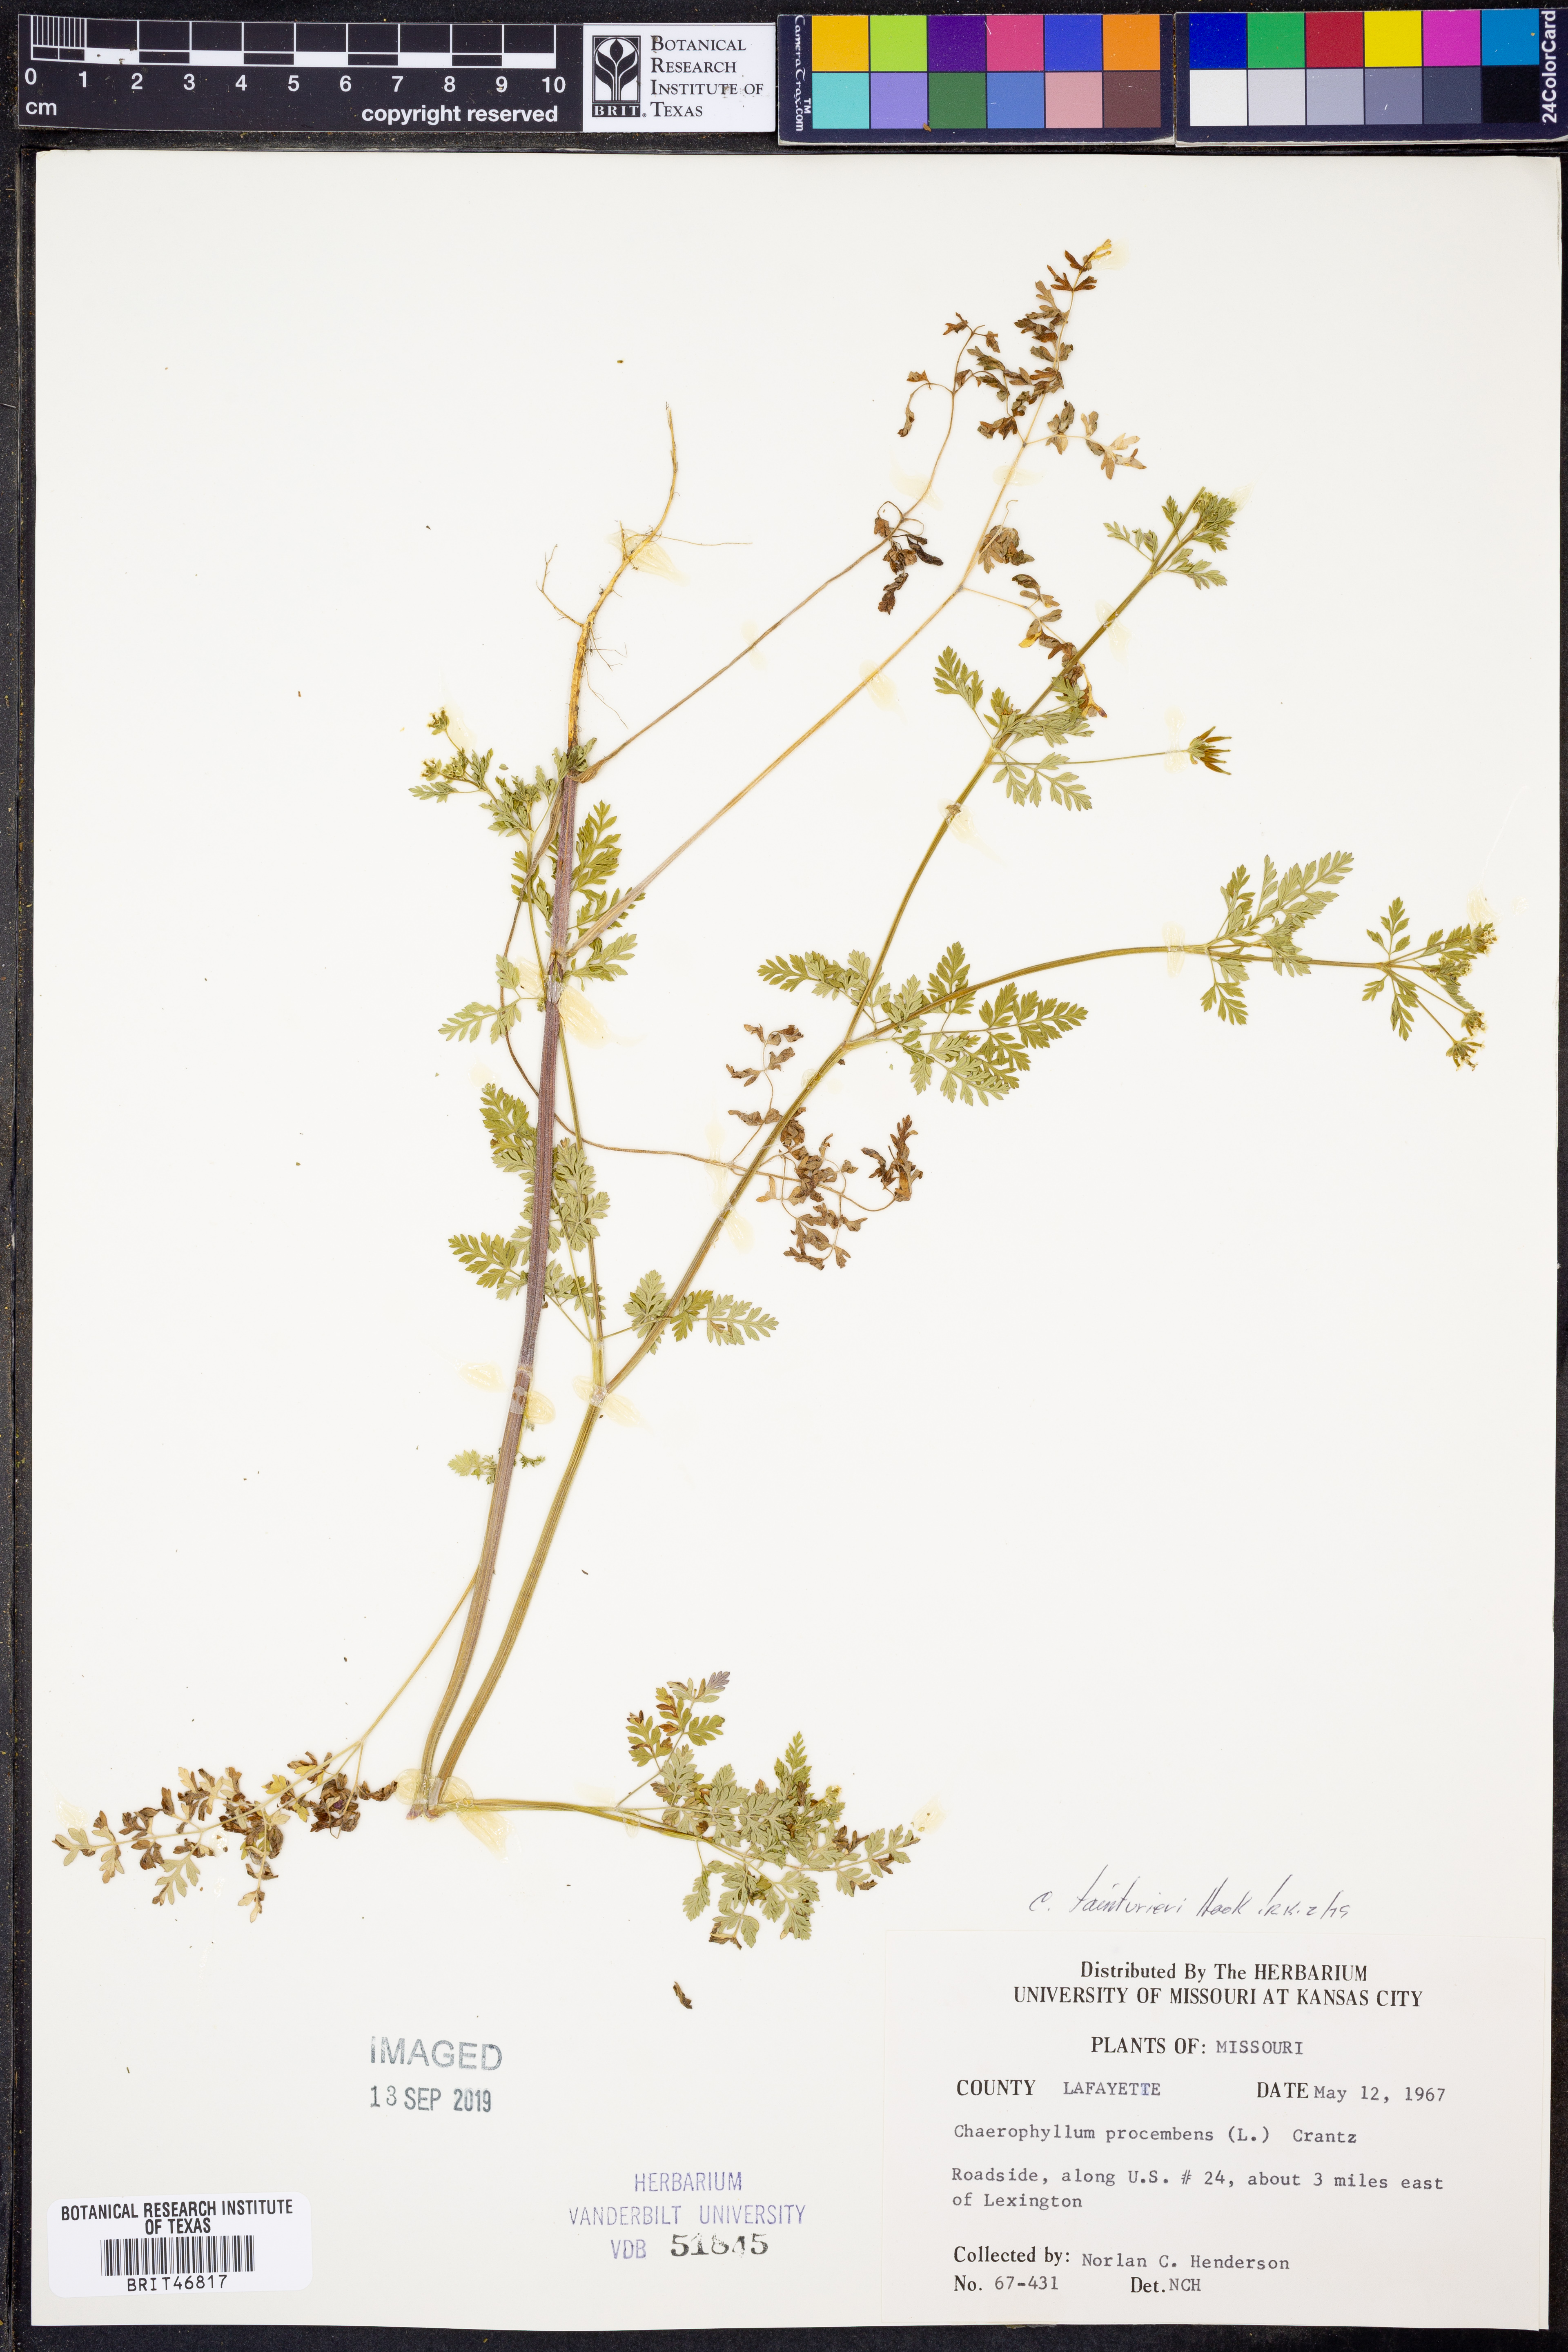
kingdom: Plantae
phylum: Tracheophyta
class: Magnoliopsida
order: Apiales
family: Apiaceae
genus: Chaerophyllum
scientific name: Chaerophyllum tainturieri
